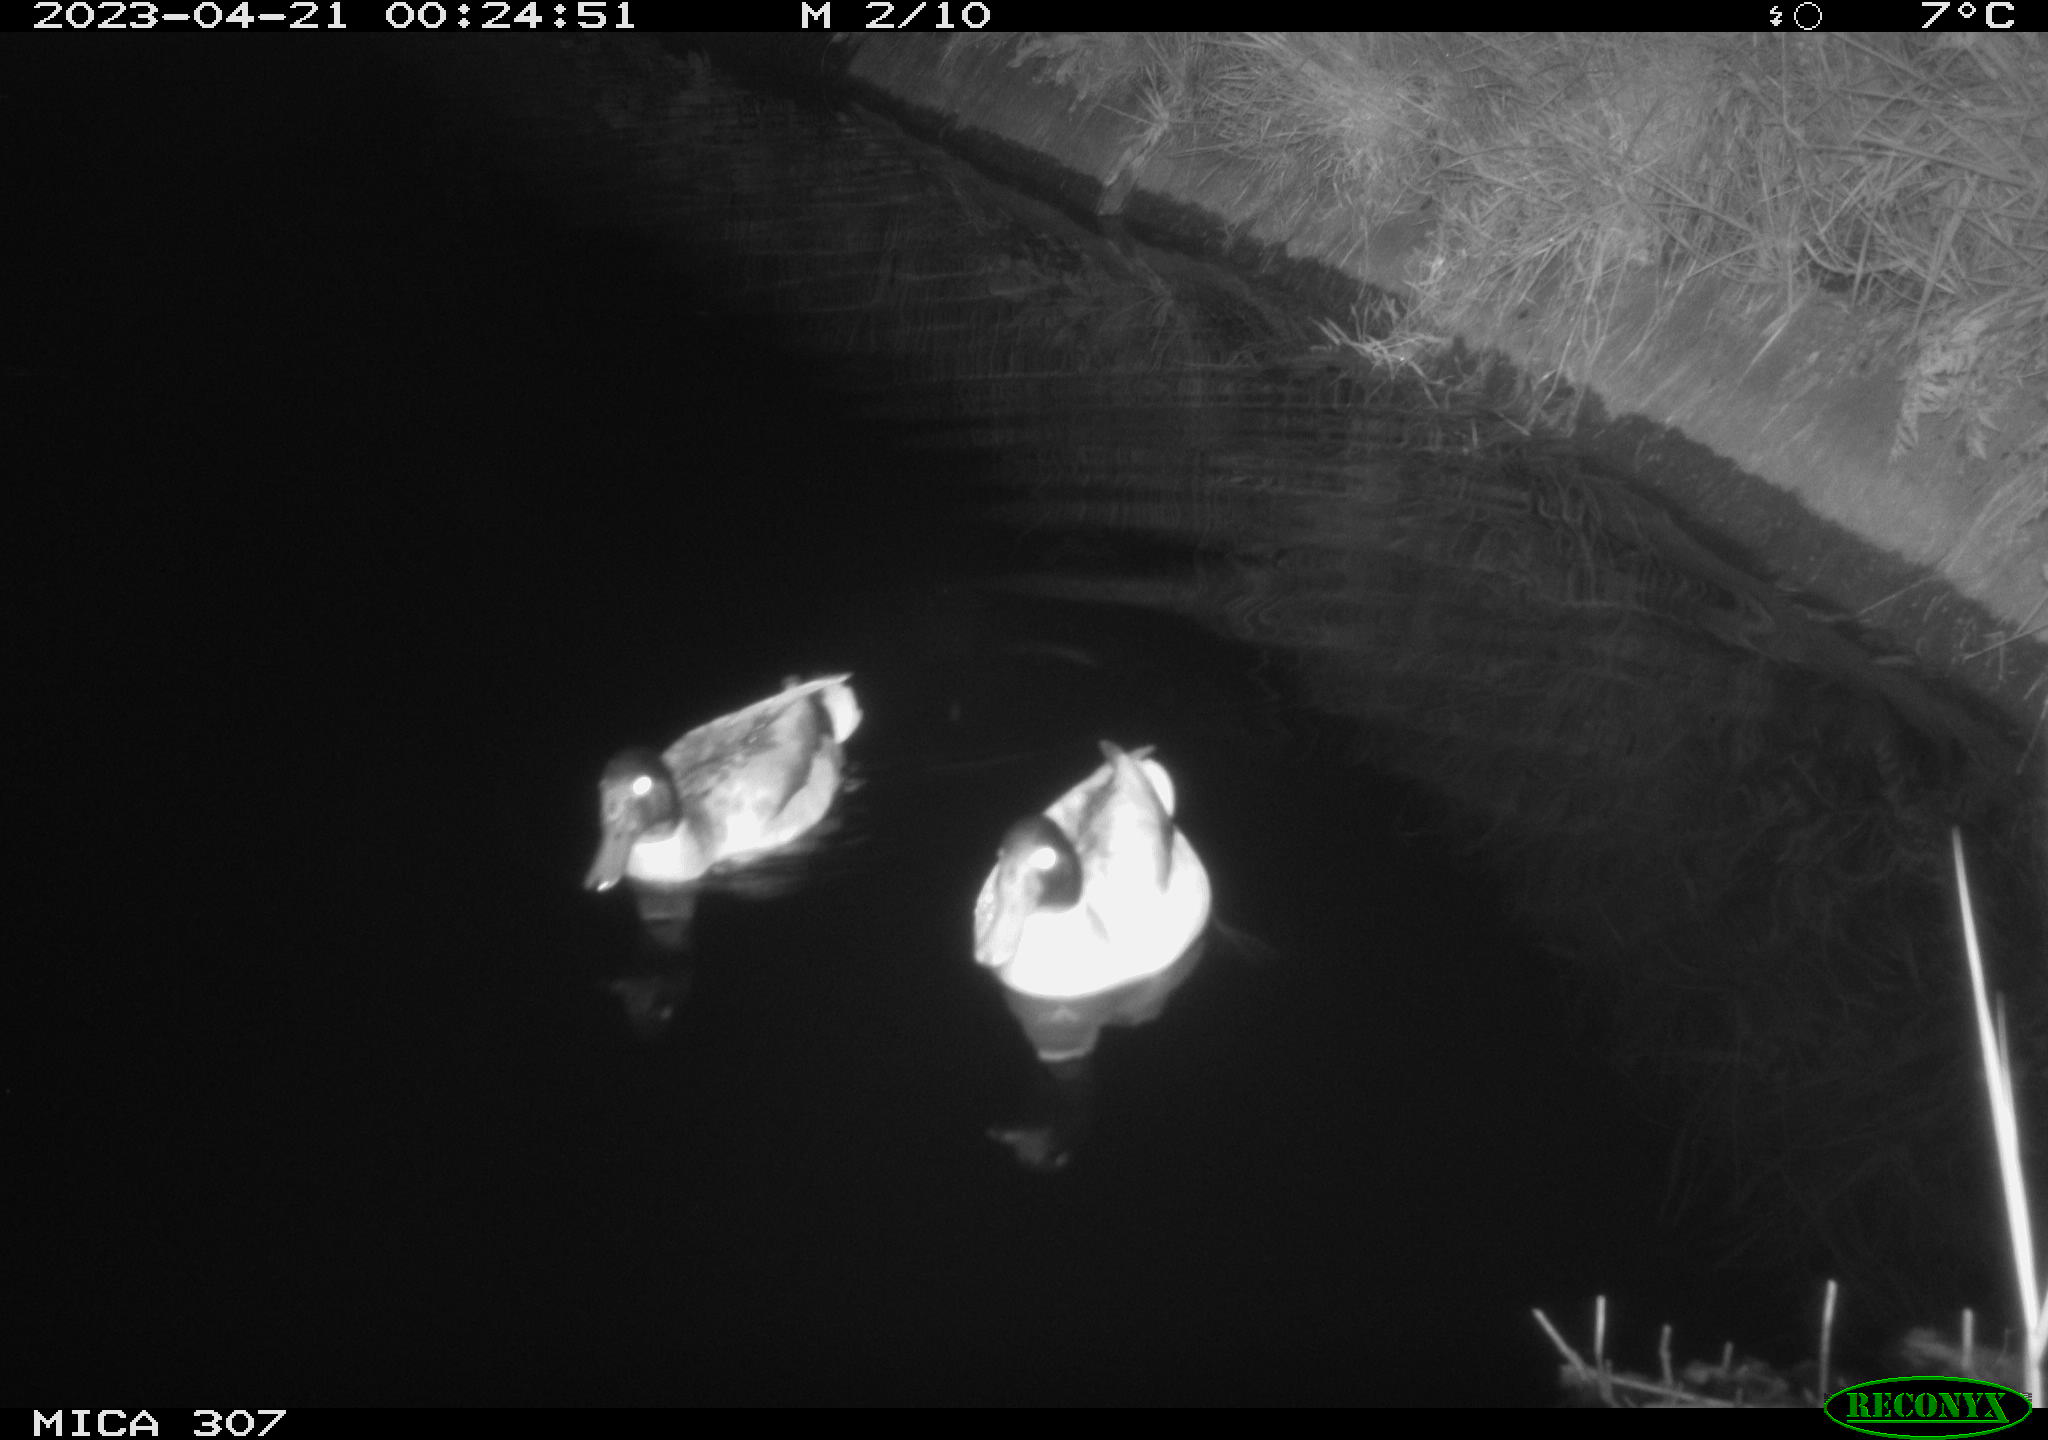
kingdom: Animalia
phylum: Chordata
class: Aves
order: Anseriformes
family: Anatidae
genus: Anas
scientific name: Anas
